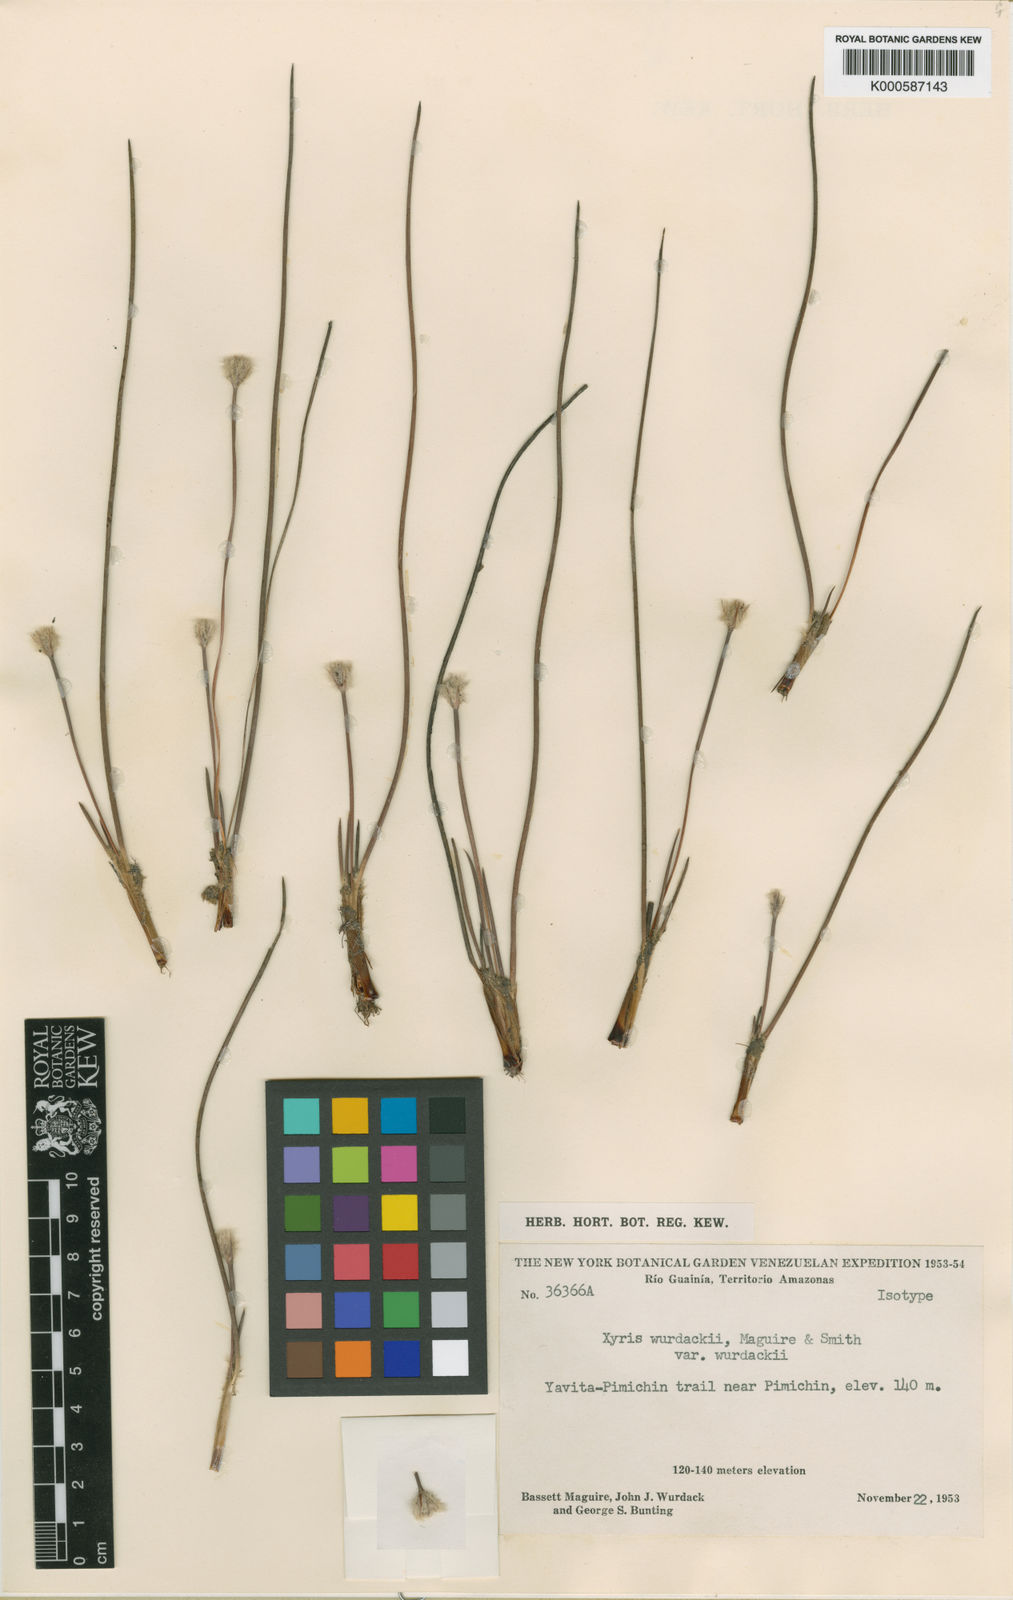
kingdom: Plantae
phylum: Tracheophyta
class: Liliopsida
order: Poales
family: Xyridaceae
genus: Xyris
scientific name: Xyris wurdackii
